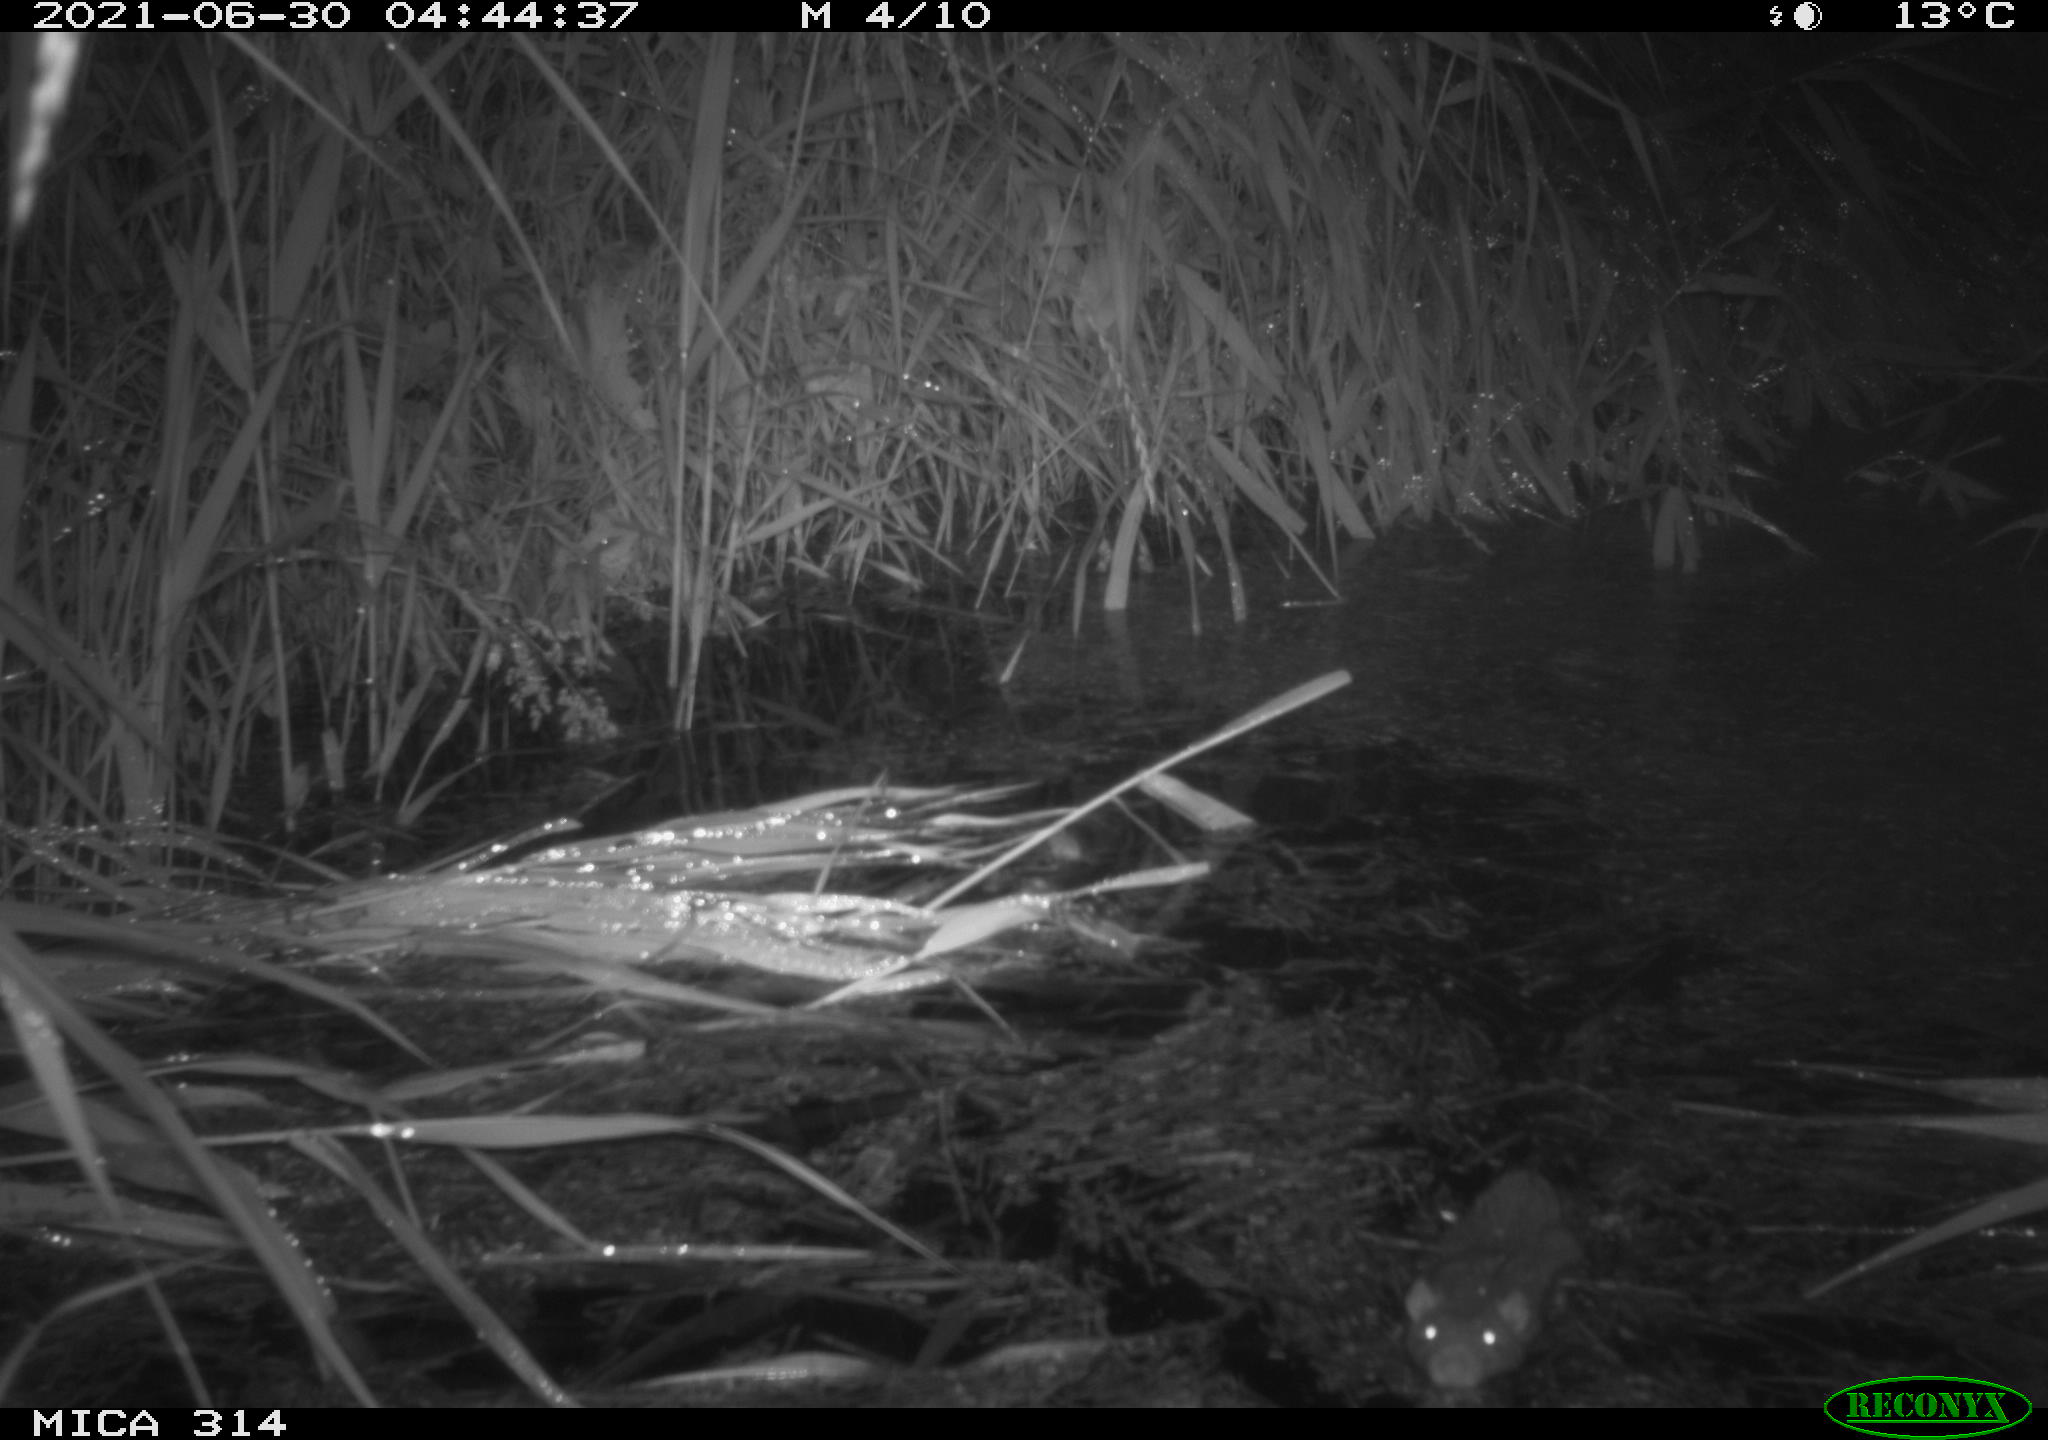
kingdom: Animalia
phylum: Chordata
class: Mammalia
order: Rodentia
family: Muridae
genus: Rattus
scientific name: Rattus norvegicus
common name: Brown rat
